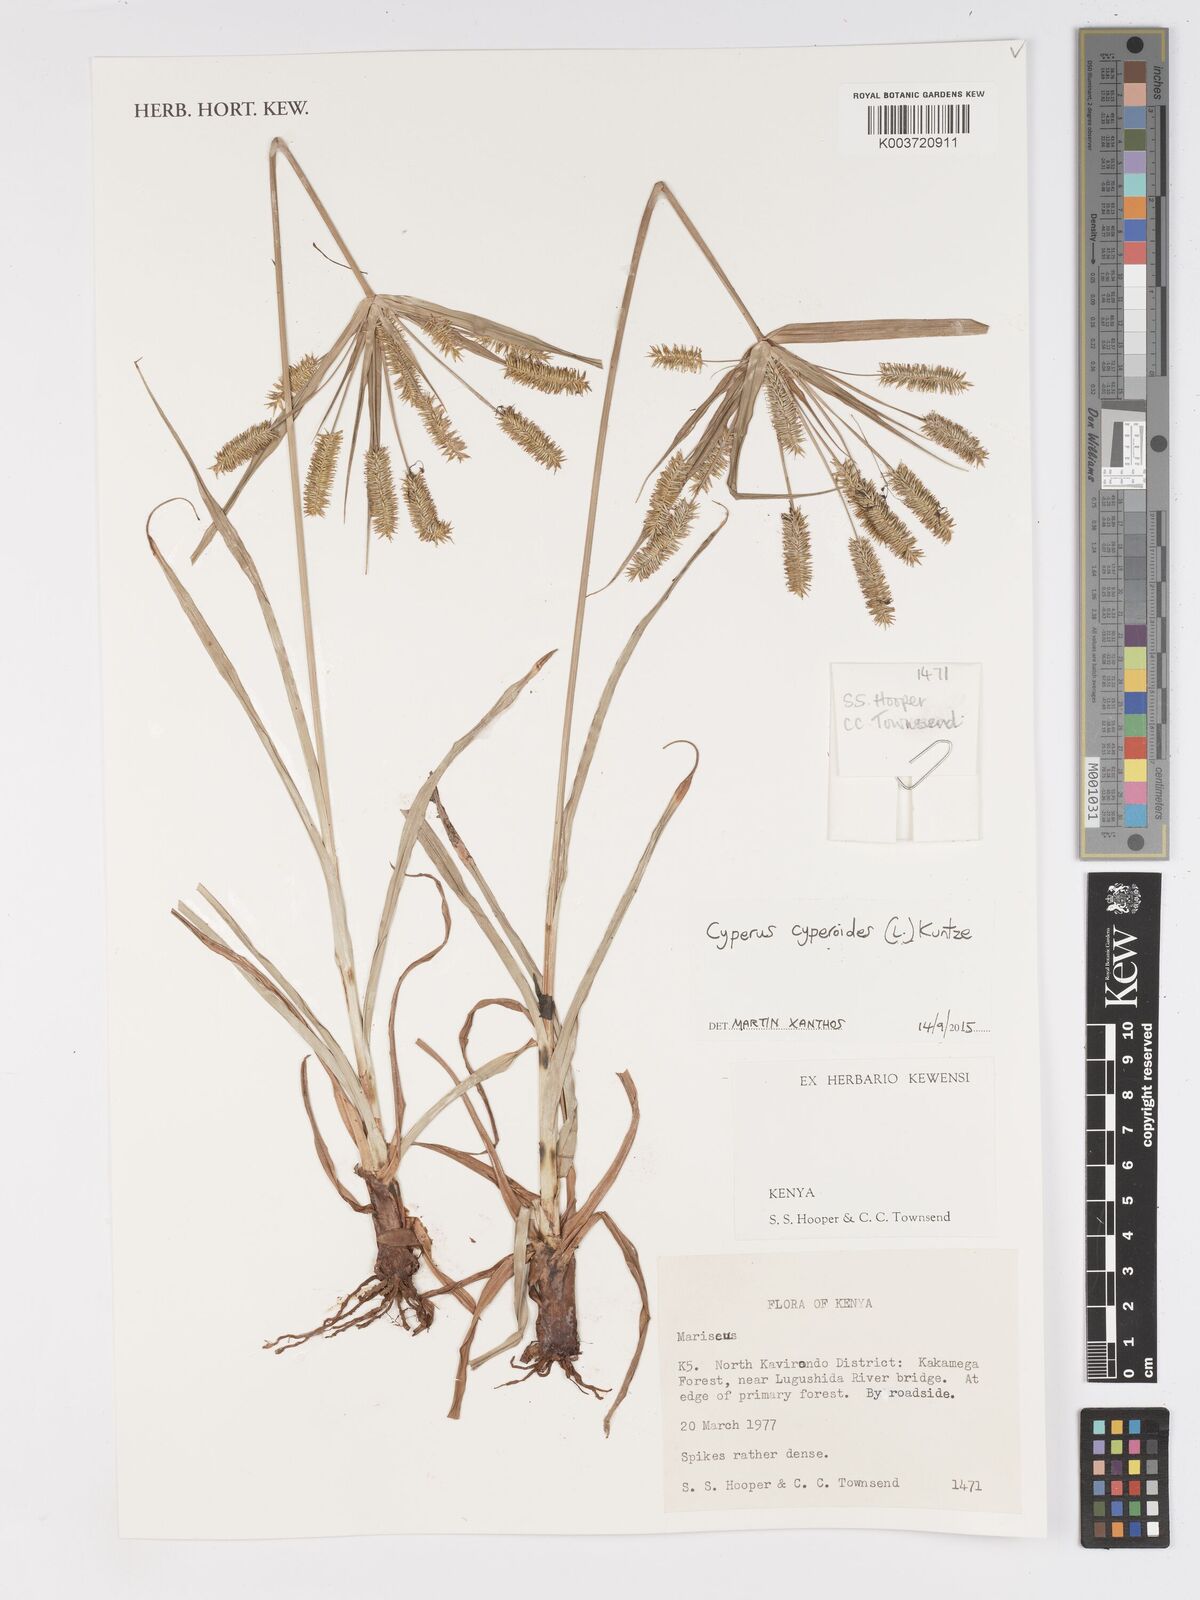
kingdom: Plantae
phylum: Tracheophyta
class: Liliopsida
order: Poales
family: Cyperaceae
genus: Cyperus
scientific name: Cyperus cyperoides
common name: Pacific island flat sedge
